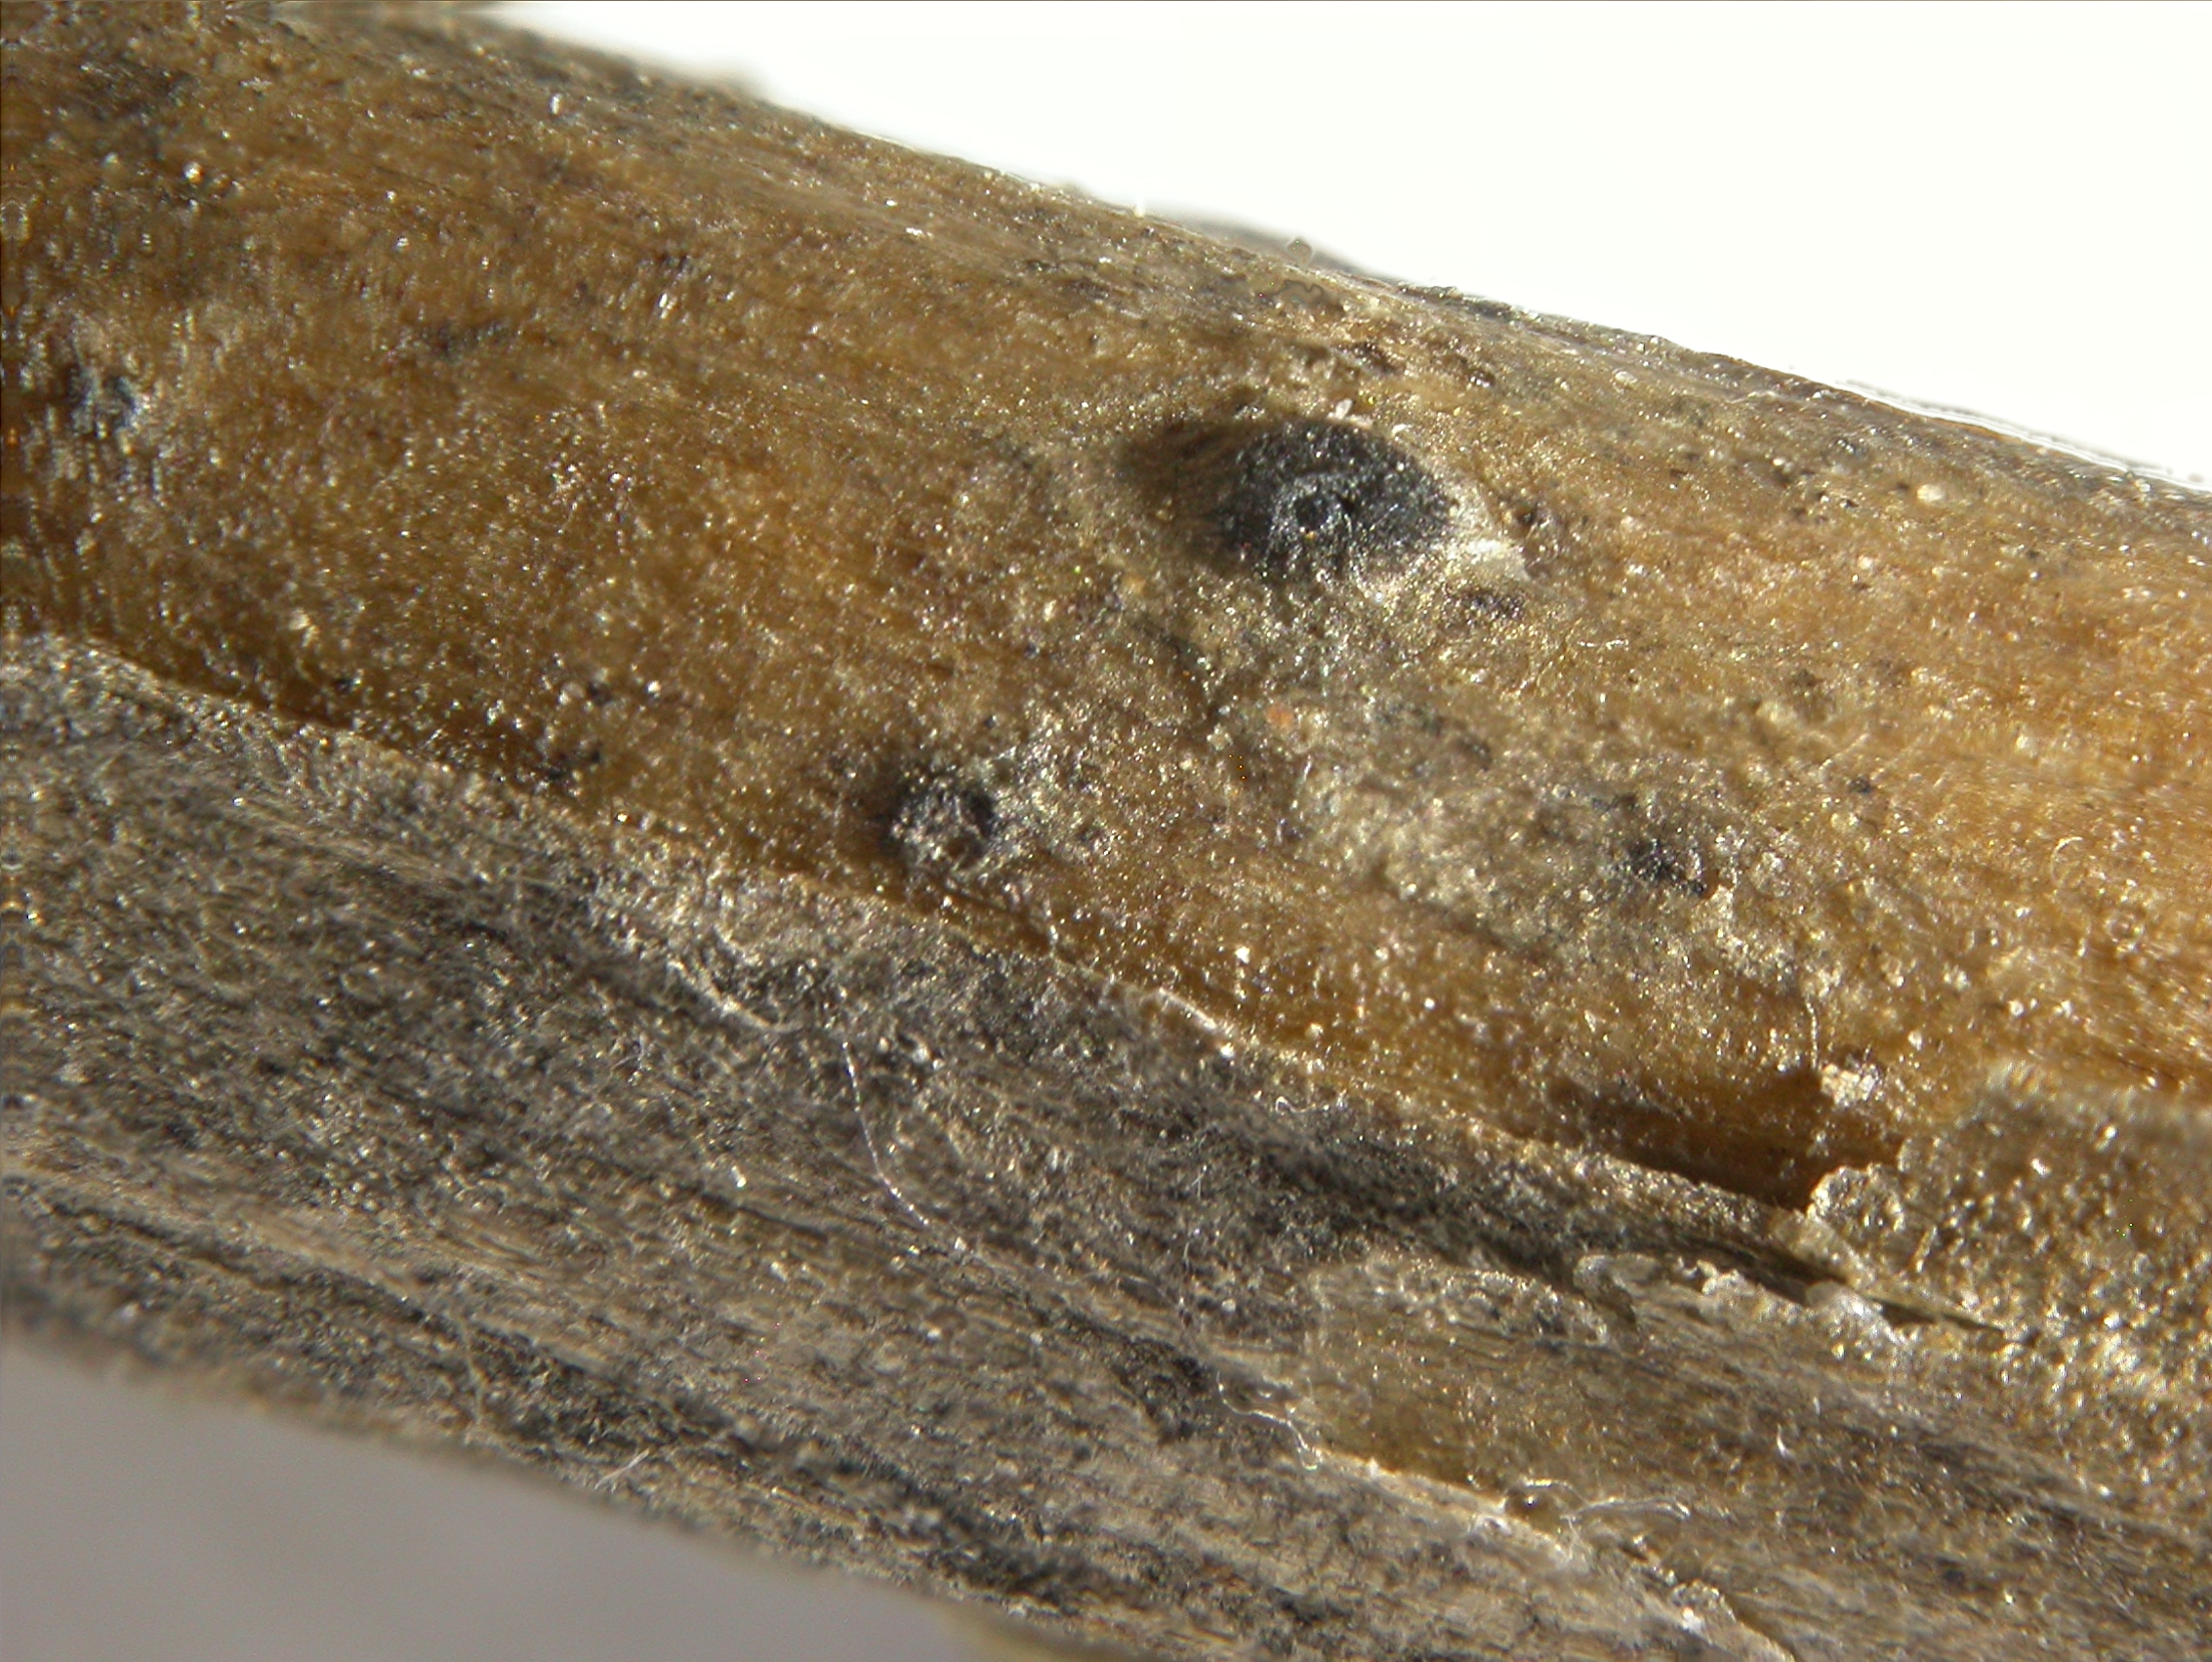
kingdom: Fungi
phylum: Ascomycota
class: Dothideomycetes
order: Botryosphaeriales
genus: Camarosporium
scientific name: Camarosporium periclymeni
